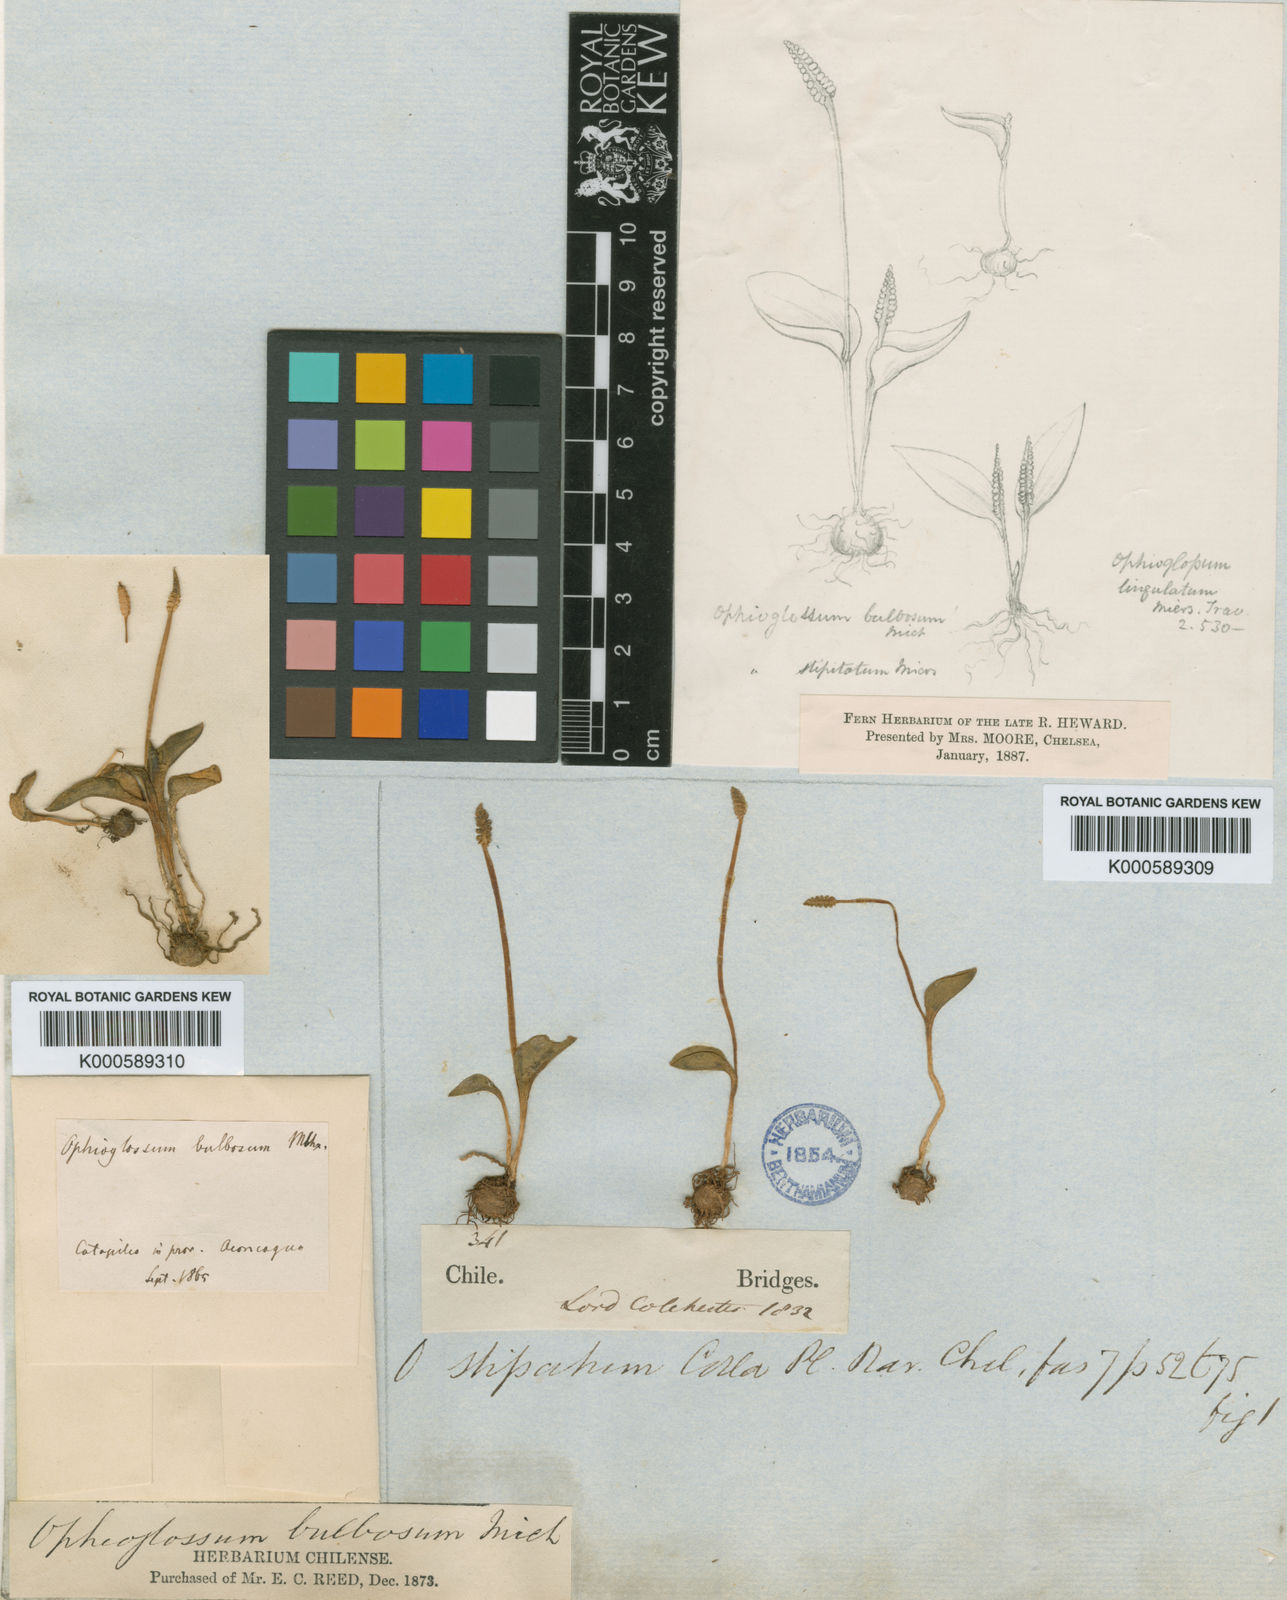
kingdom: Plantae
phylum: Tracheophyta
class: Polypodiopsida
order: Ophioglossales
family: Ophioglossaceae
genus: Ophioglossum
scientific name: Ophioglossum crotalophoroides
